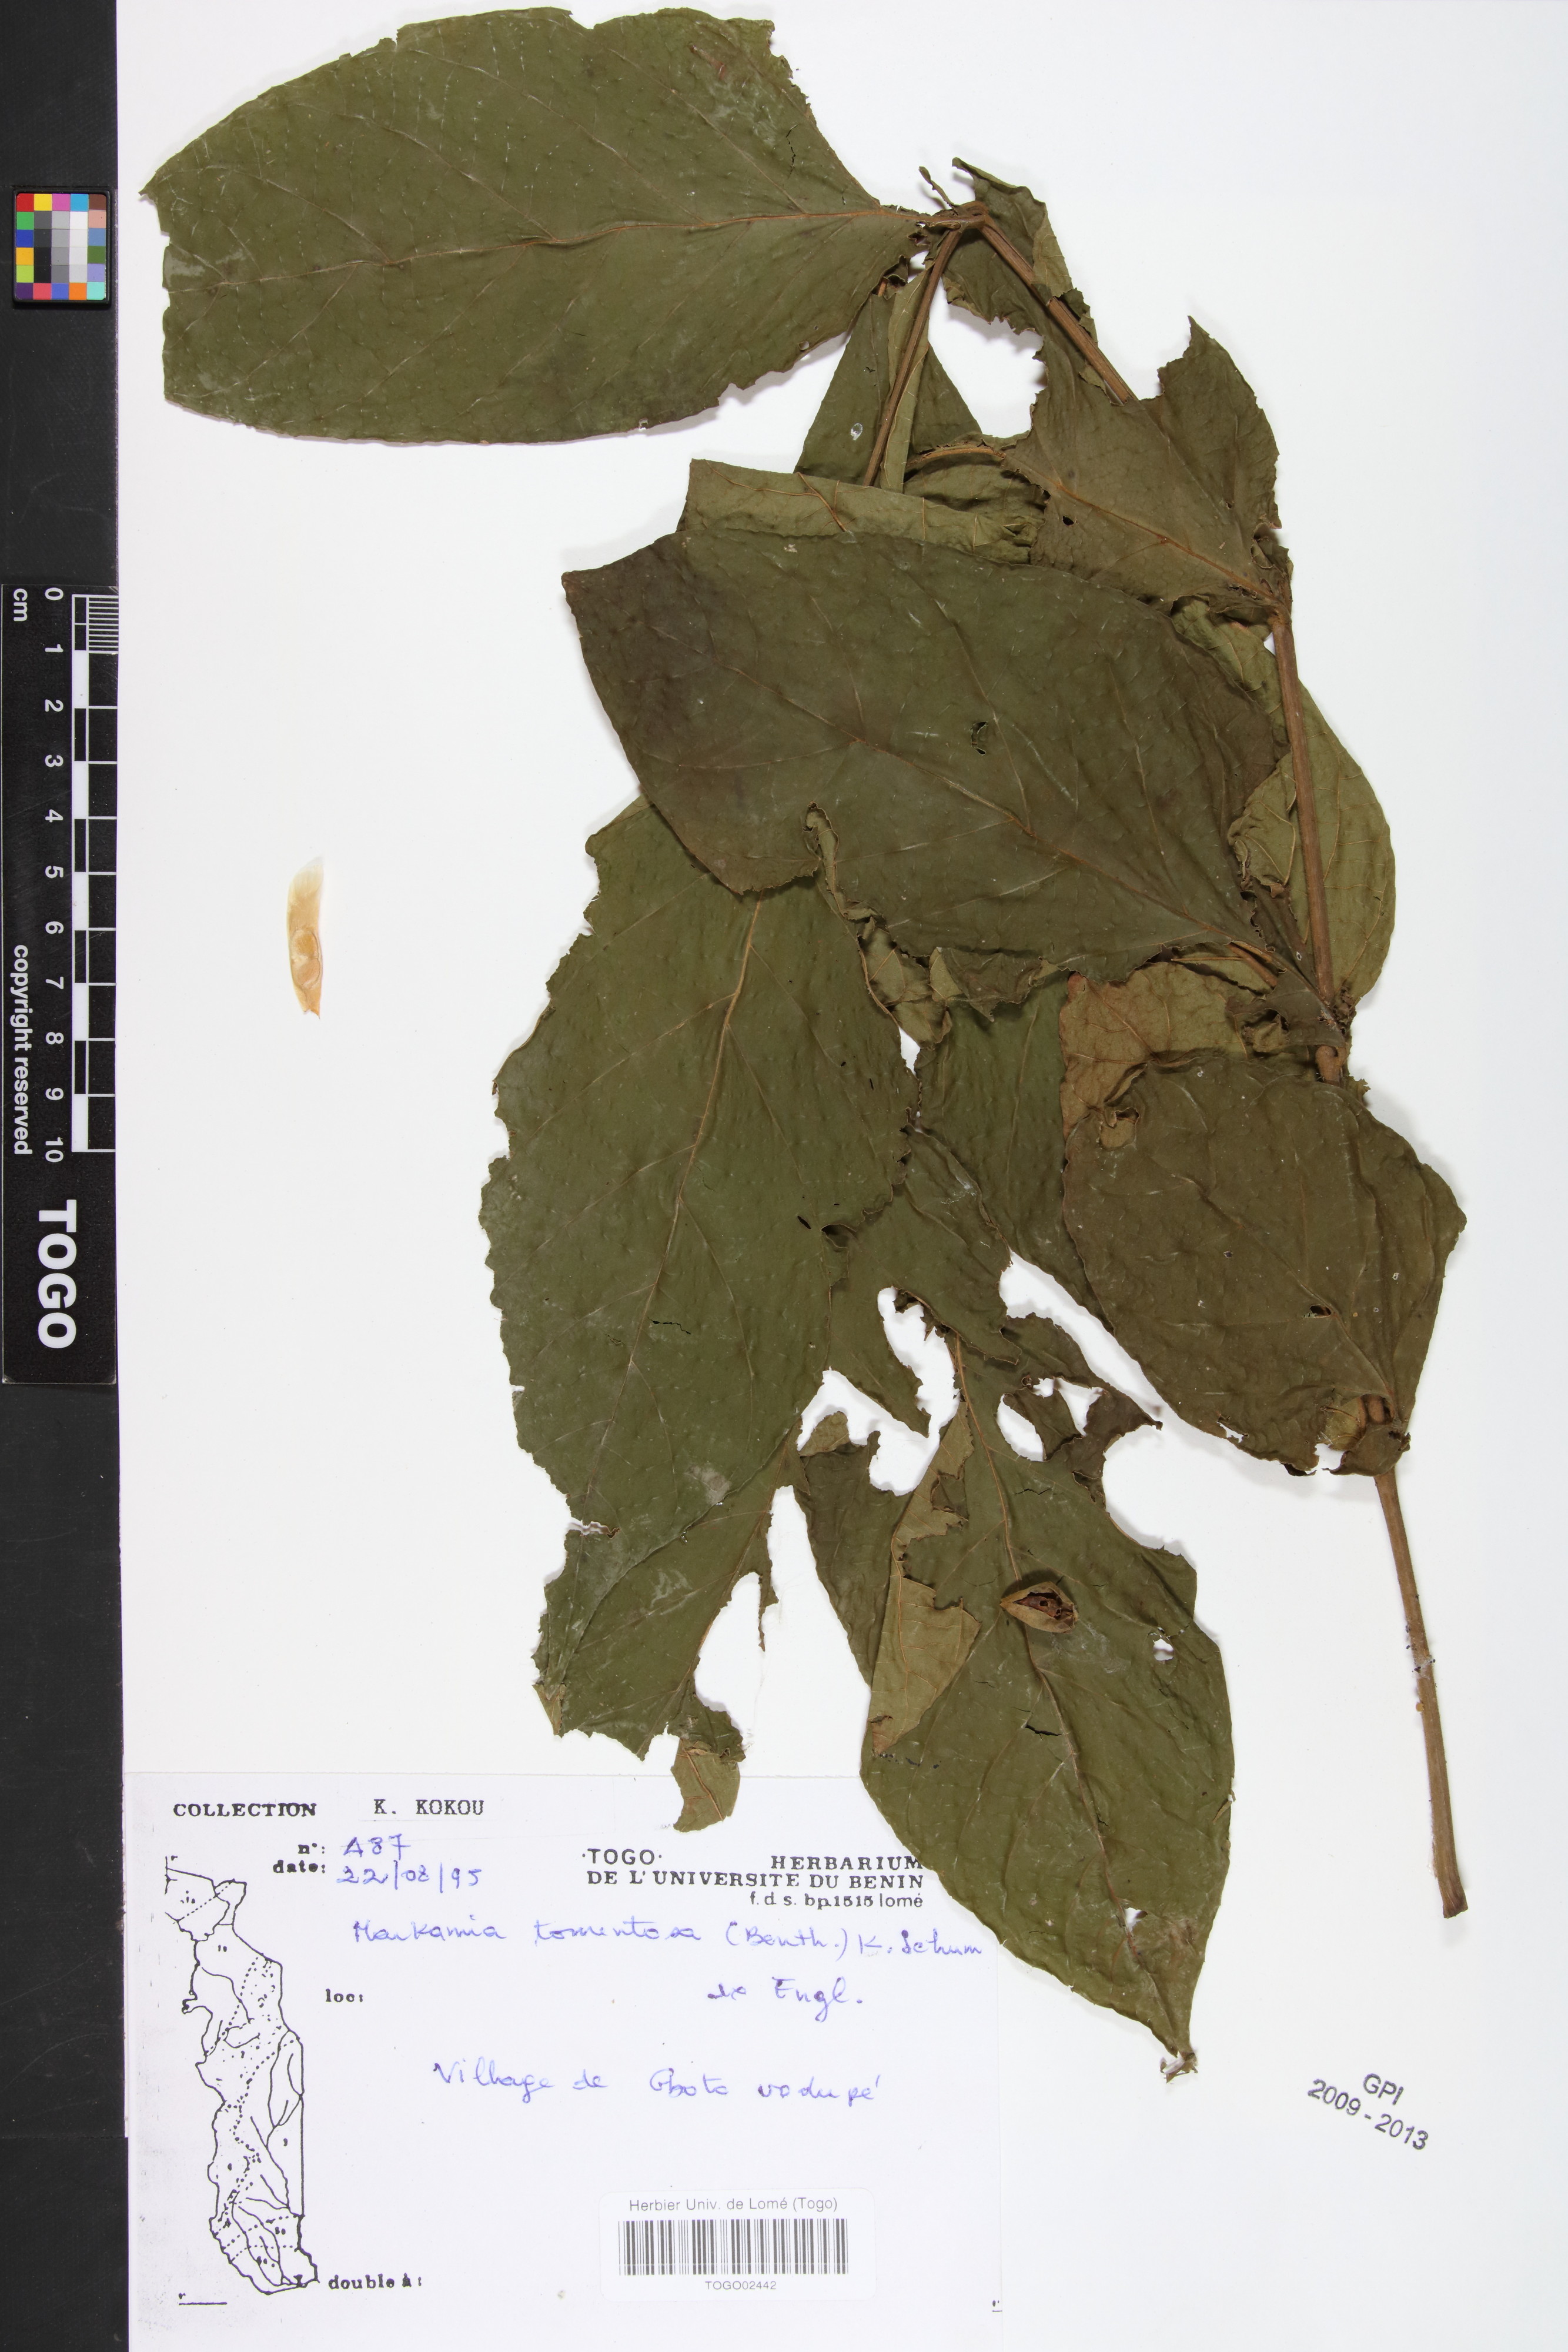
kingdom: Plantae
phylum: Tracheophyta
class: Magnoliopsida
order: Lamiales
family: Bignoniaceae
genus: Markhamia
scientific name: Markhamia tomentosa
